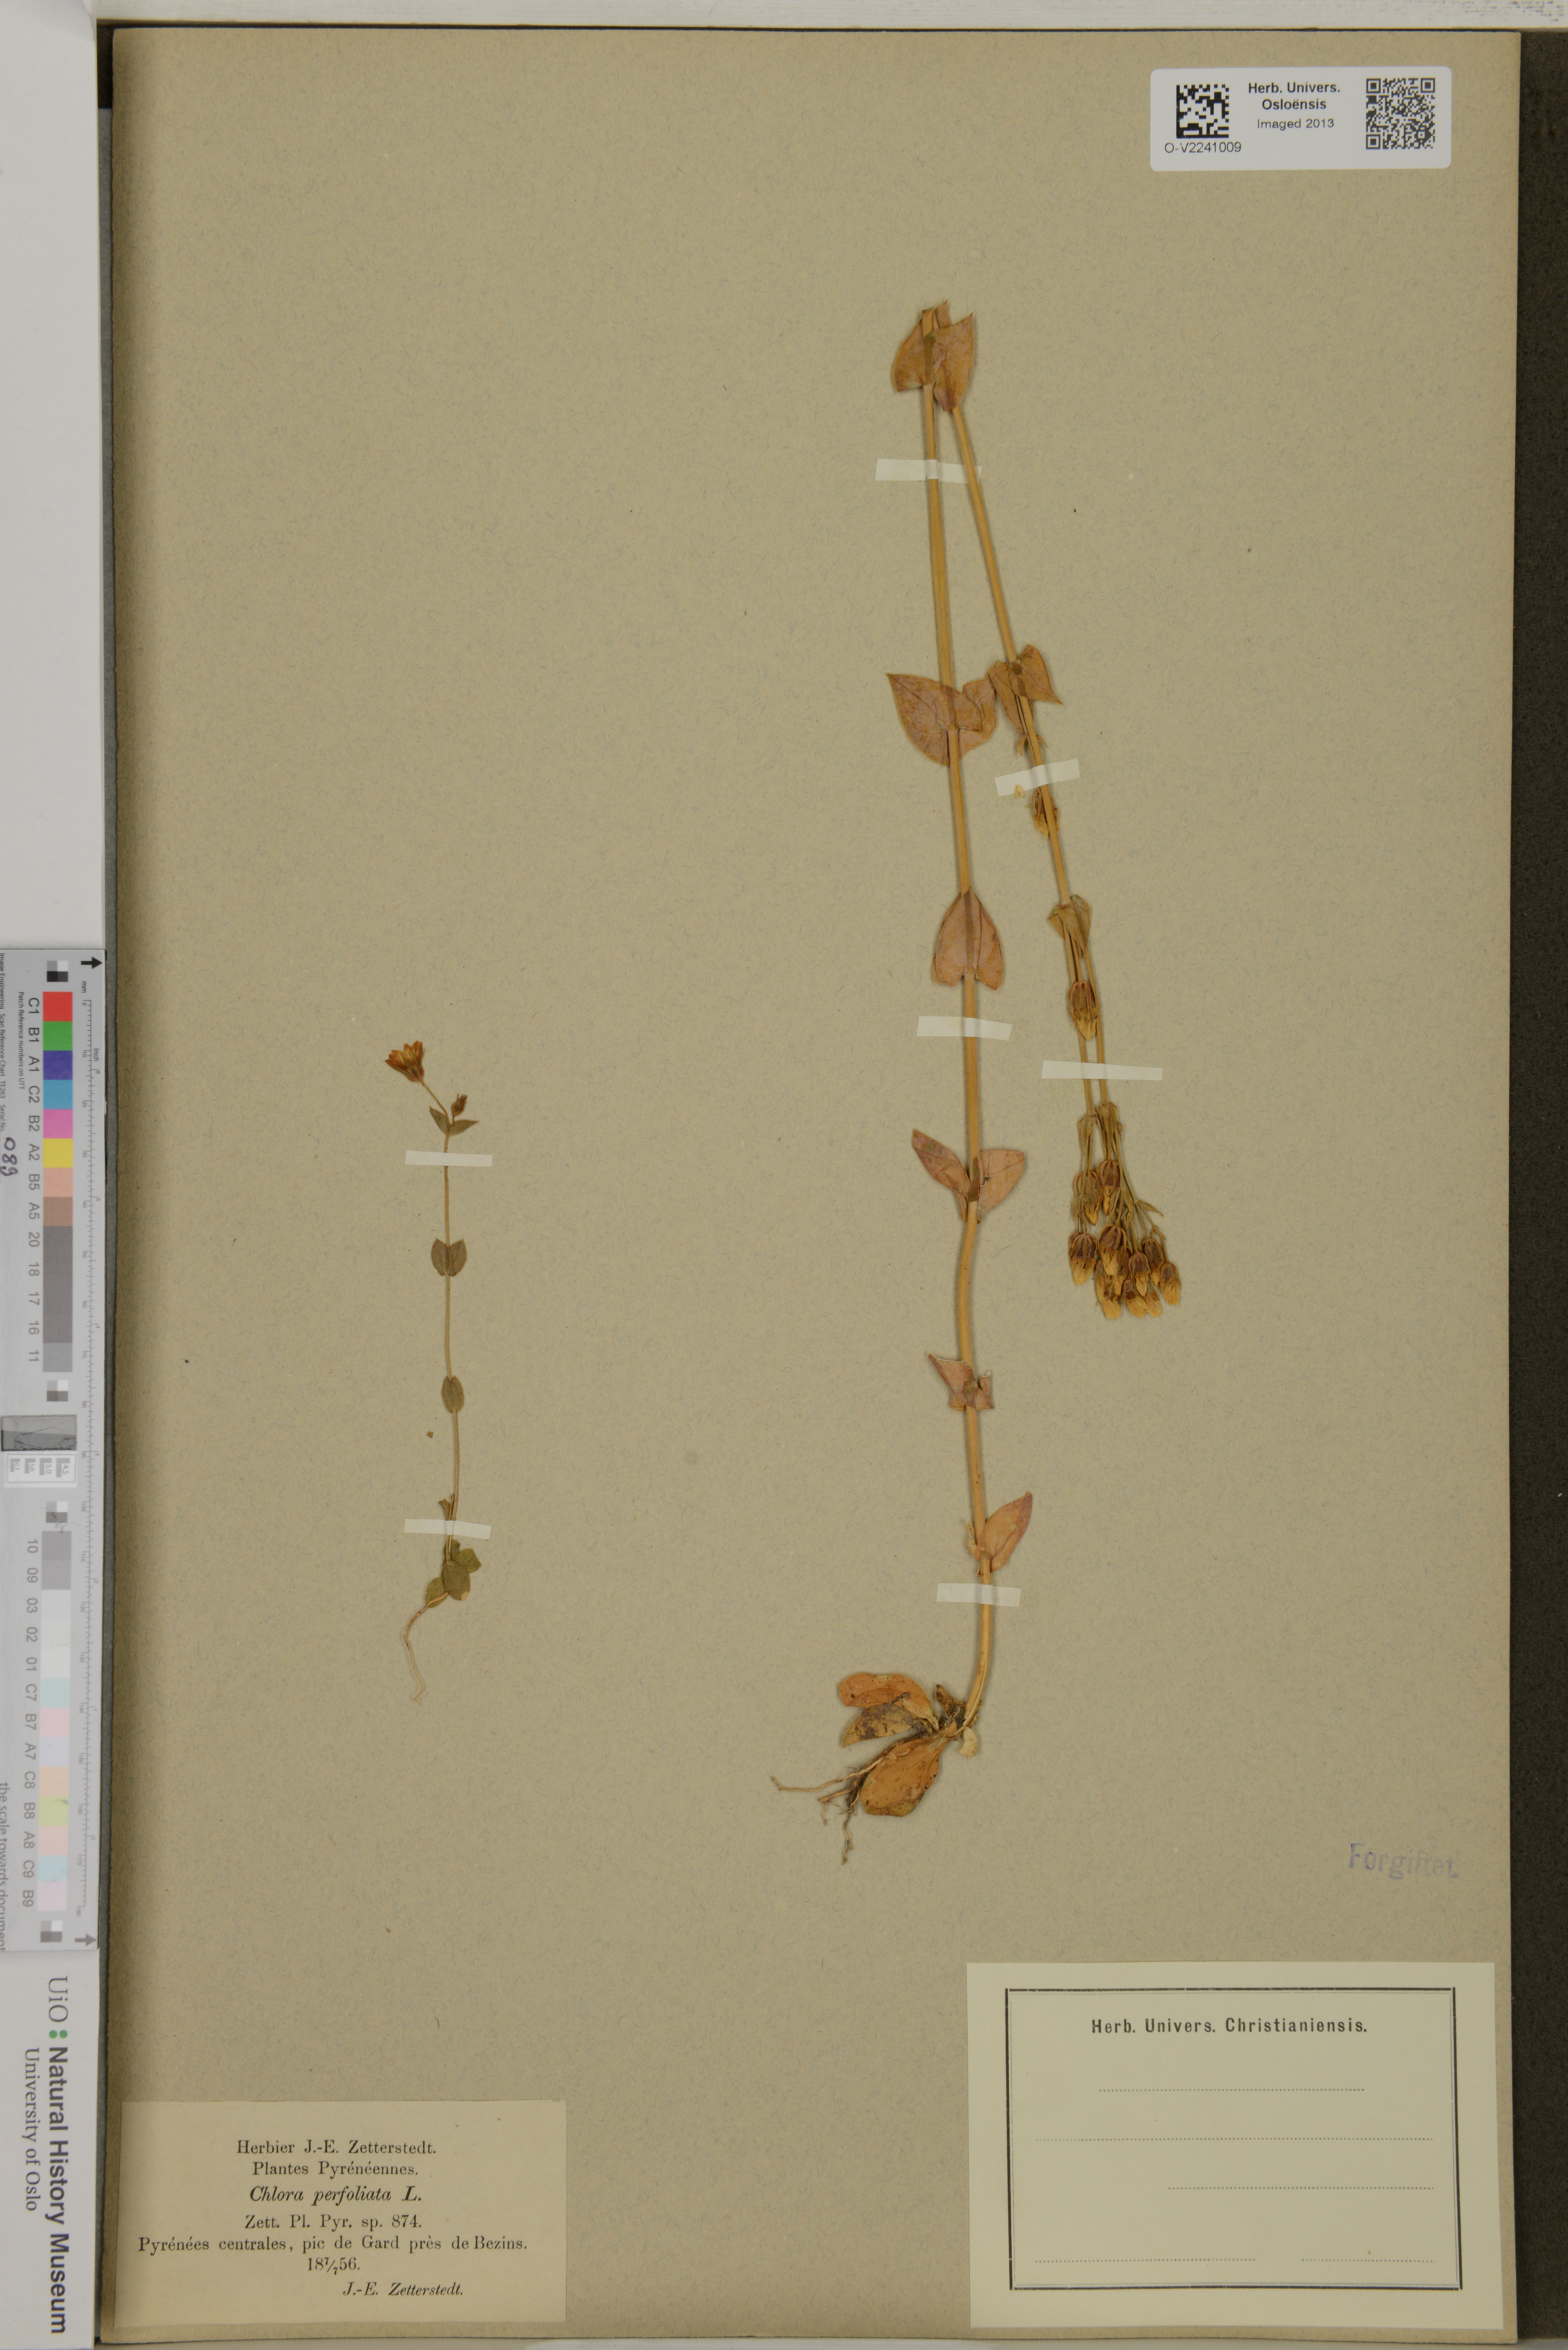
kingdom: Plantae
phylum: Tracheophyta
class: Magnoliopsida
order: Gentianales
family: Gentianaceae
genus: Blackstonia
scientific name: Blackstonia perfoliata
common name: Yellow-wort
